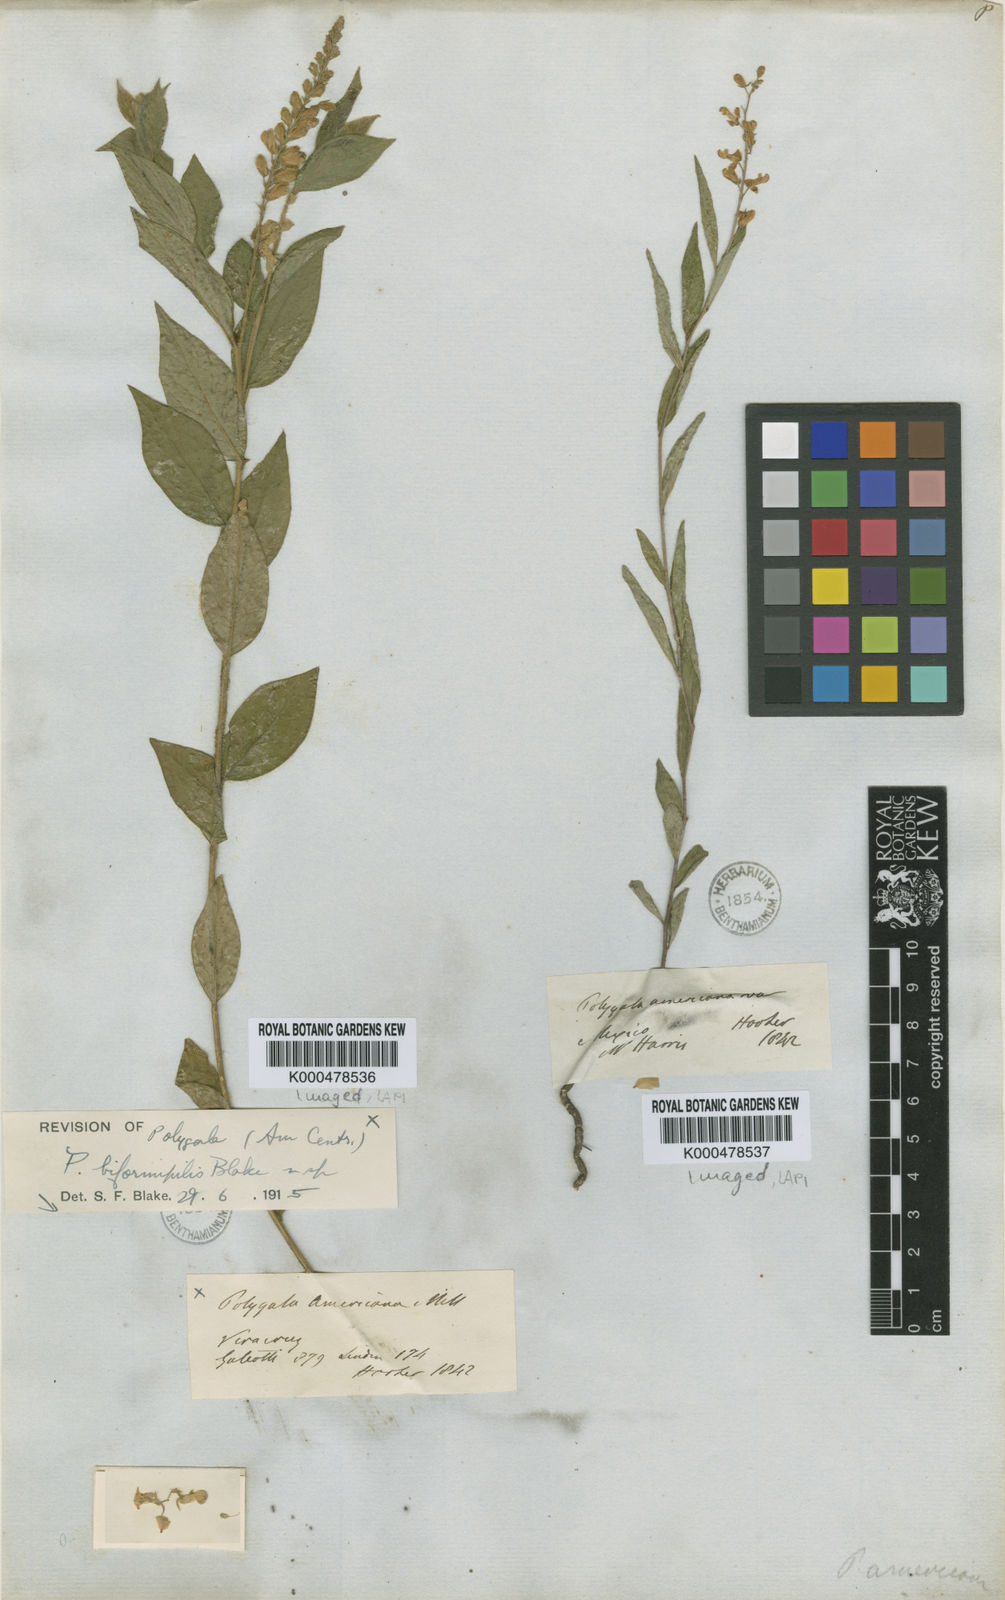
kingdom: Plantae
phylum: Tracheophyta
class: Magnoliopsida
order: Fabales
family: Polygalaceae
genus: Polygala
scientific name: Polygala biformipilis
